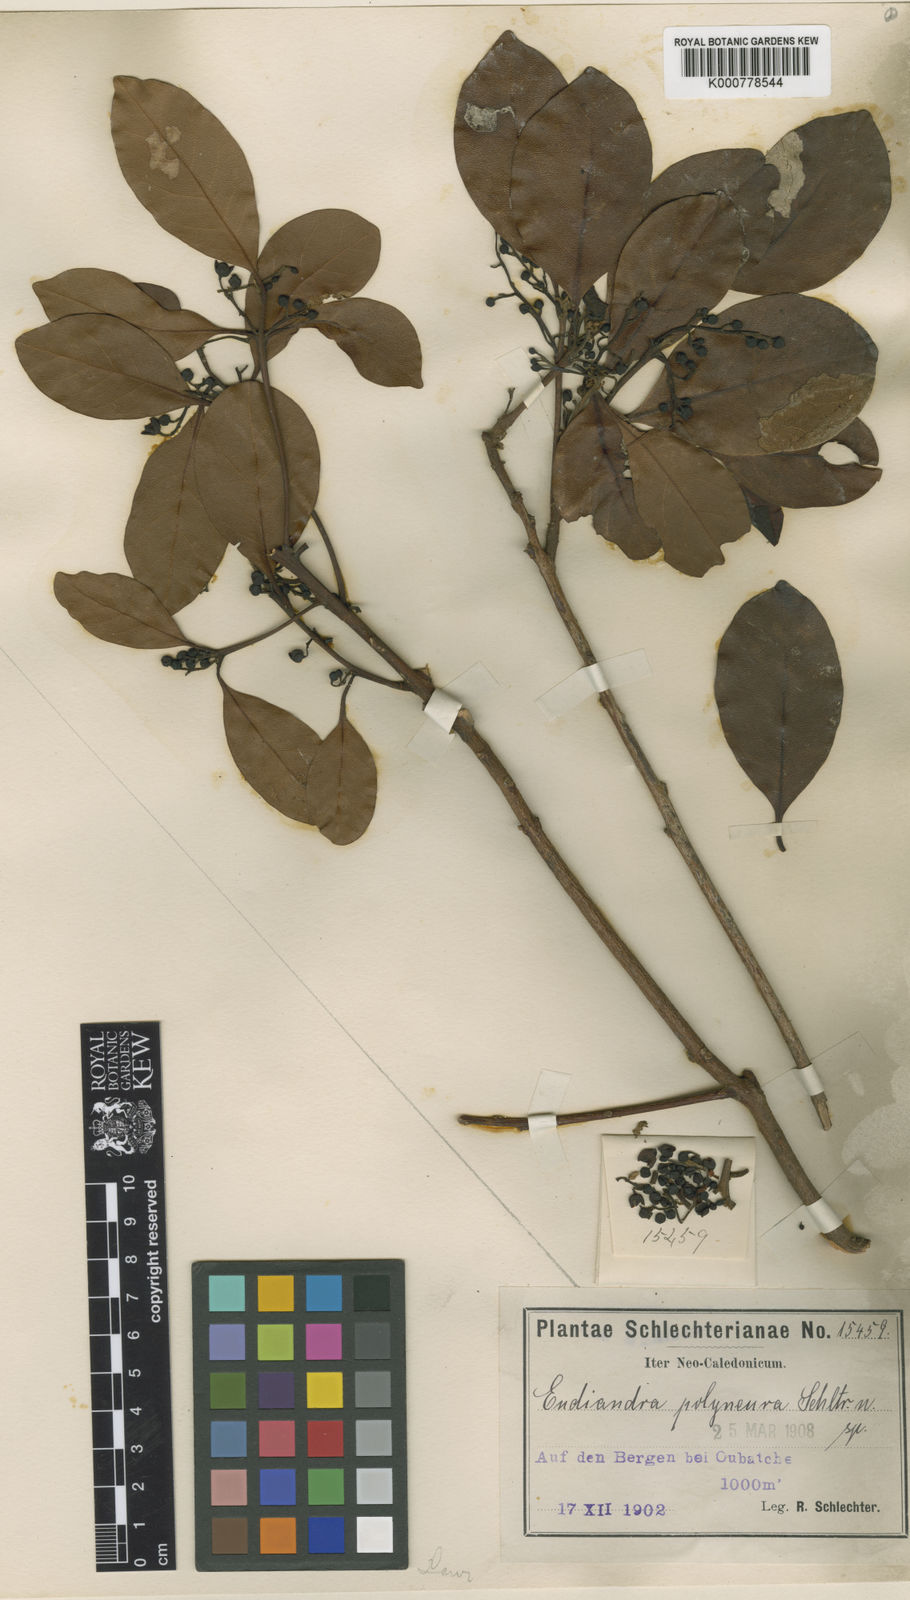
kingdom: Plantae
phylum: Tracheophyta
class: Magnoliopsida
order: Laurales
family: Lauraceae
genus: Endiandra
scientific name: Endiandra polyneura
